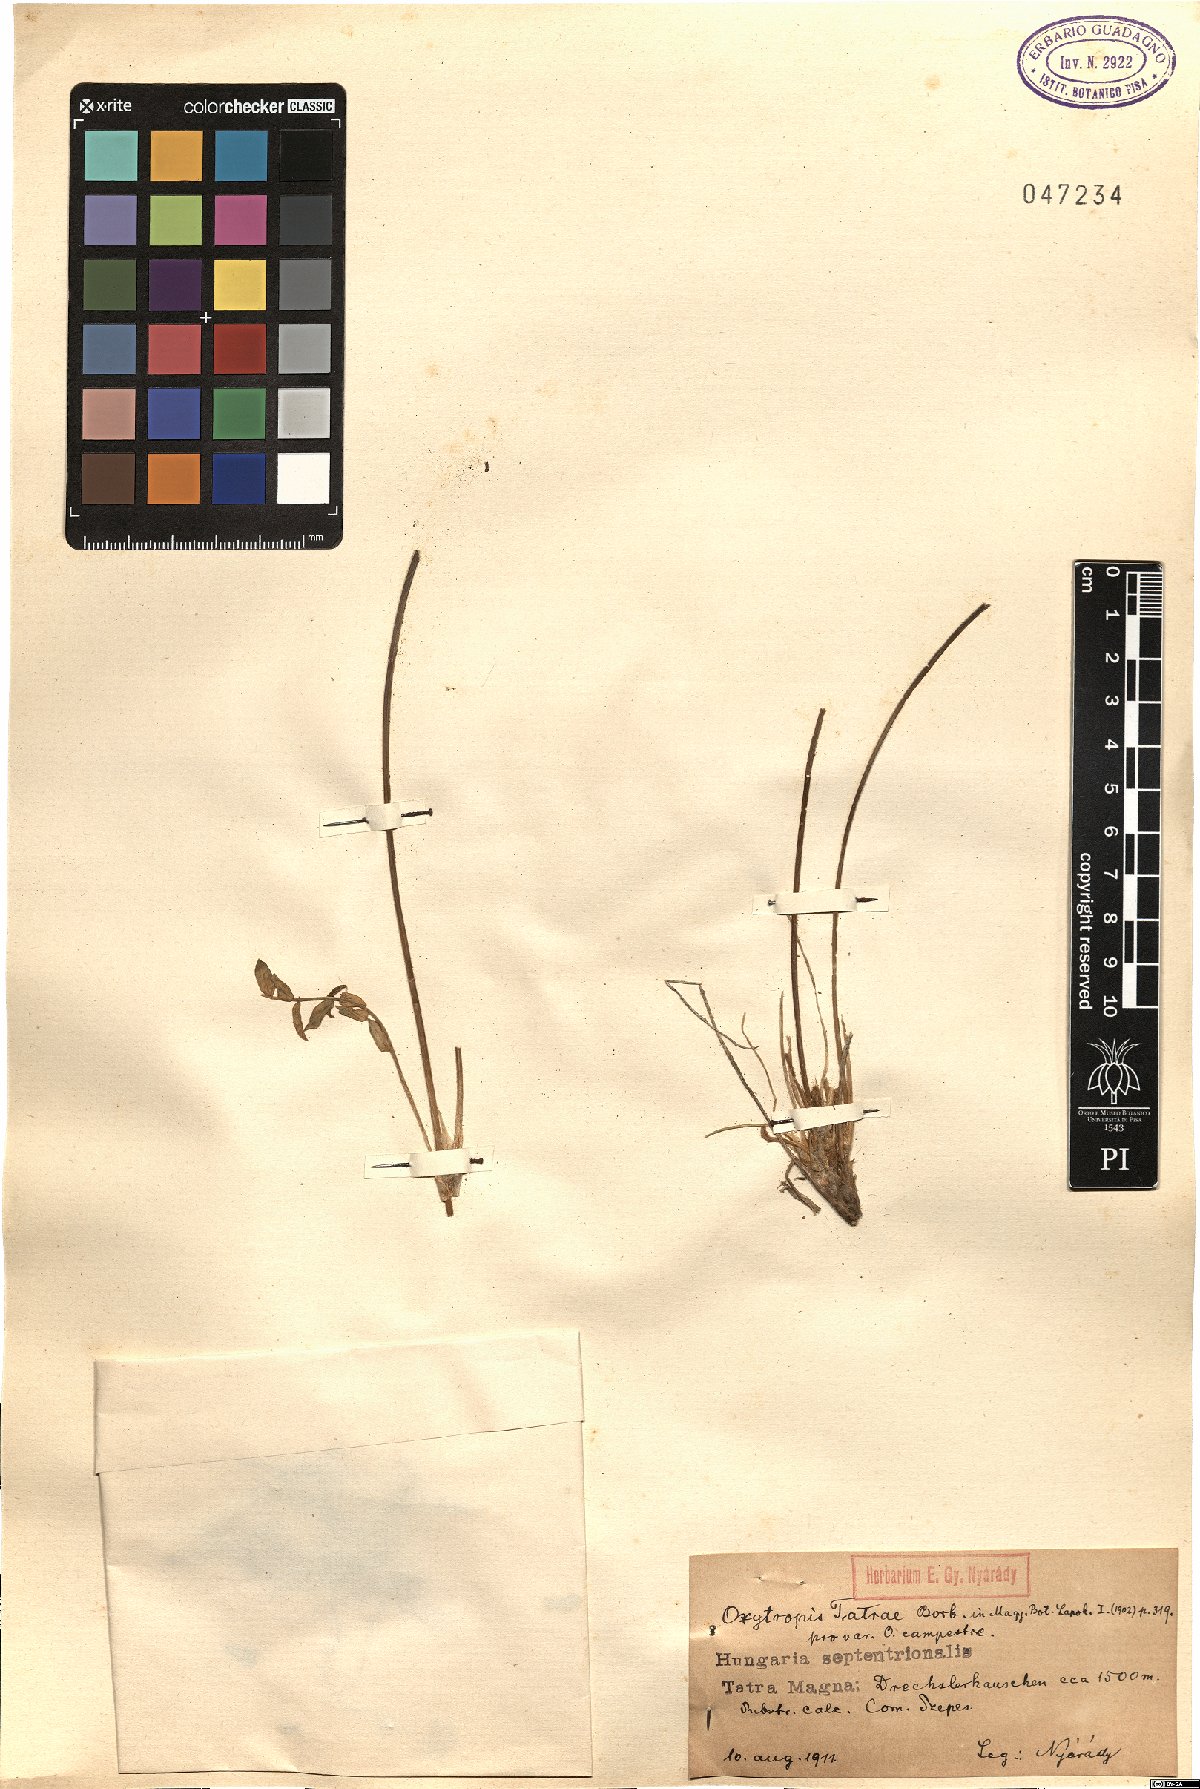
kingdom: Plantae
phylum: Tracheophyta
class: Magnoliopsida
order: Fabales
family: Fabaceae
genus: Oxytropis
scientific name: Oxytropis campestris
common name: Field locoweed
